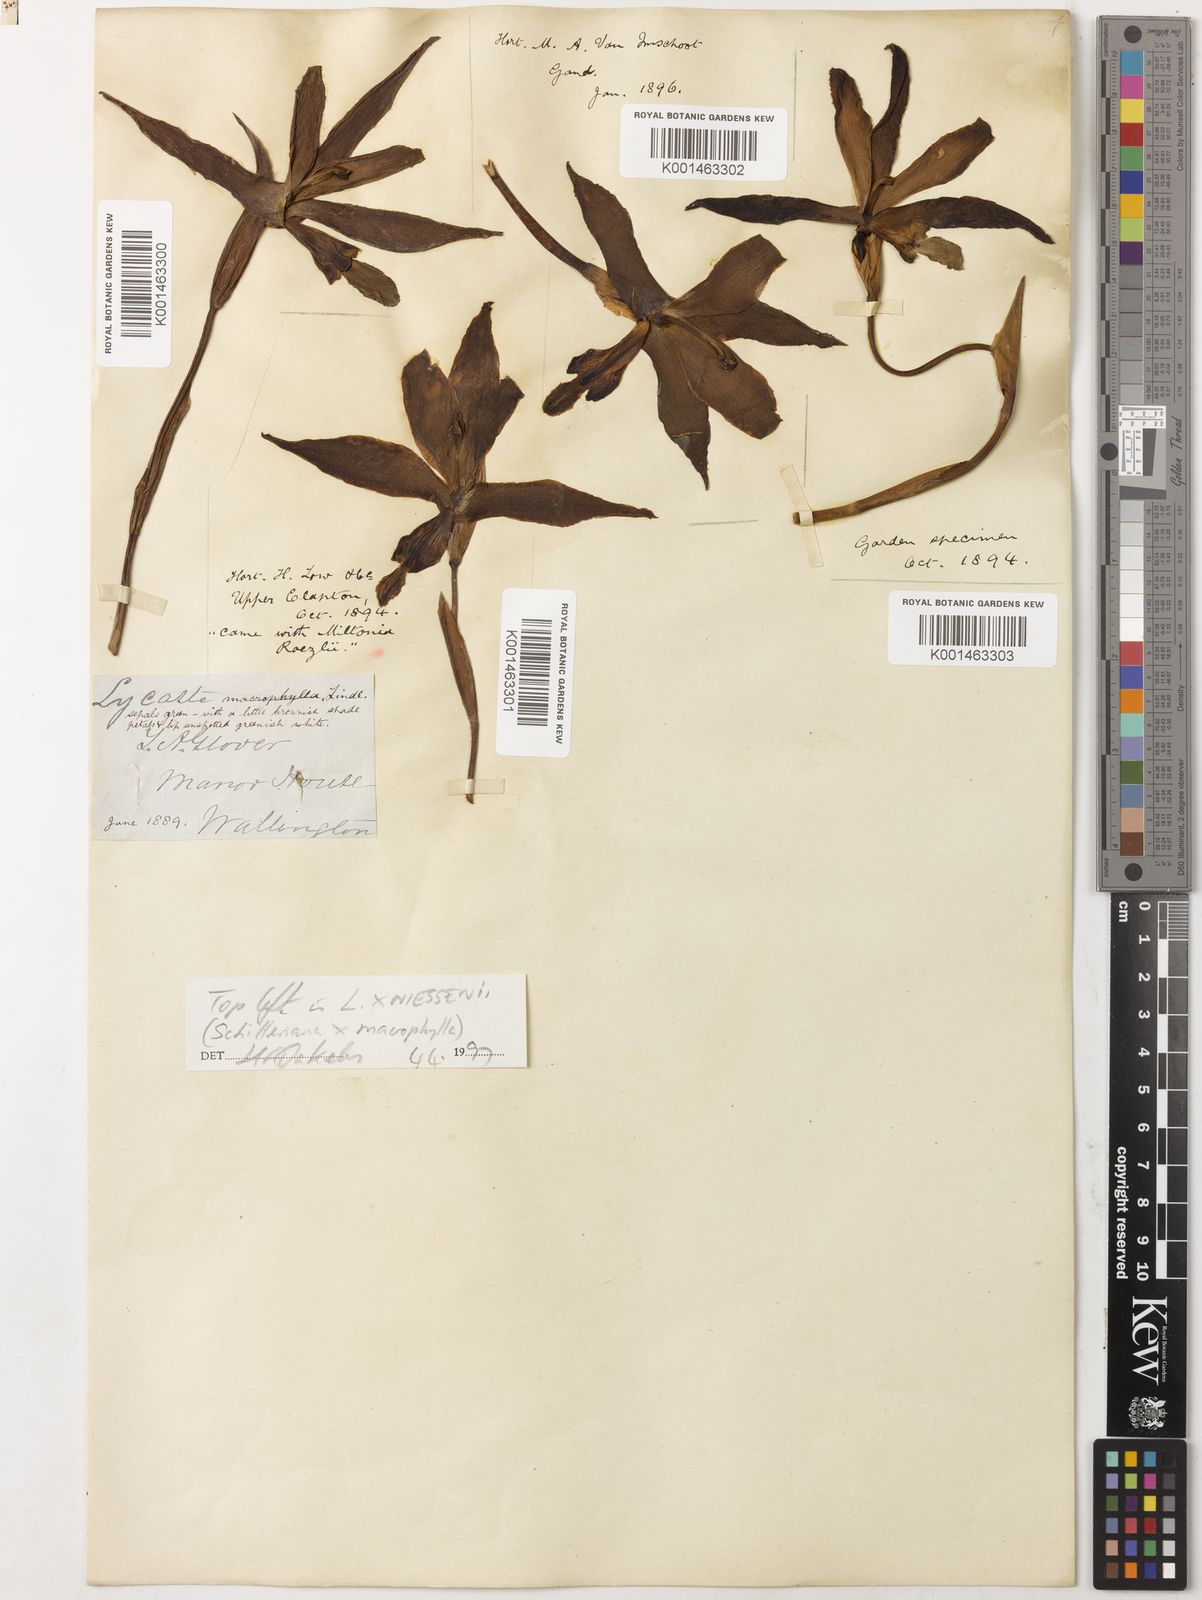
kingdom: Plantae
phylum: Tracheophyta
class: Liliopsida
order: Asparagales
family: Orchidaceae
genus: Lycaste
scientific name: Lycaste macrophylla
